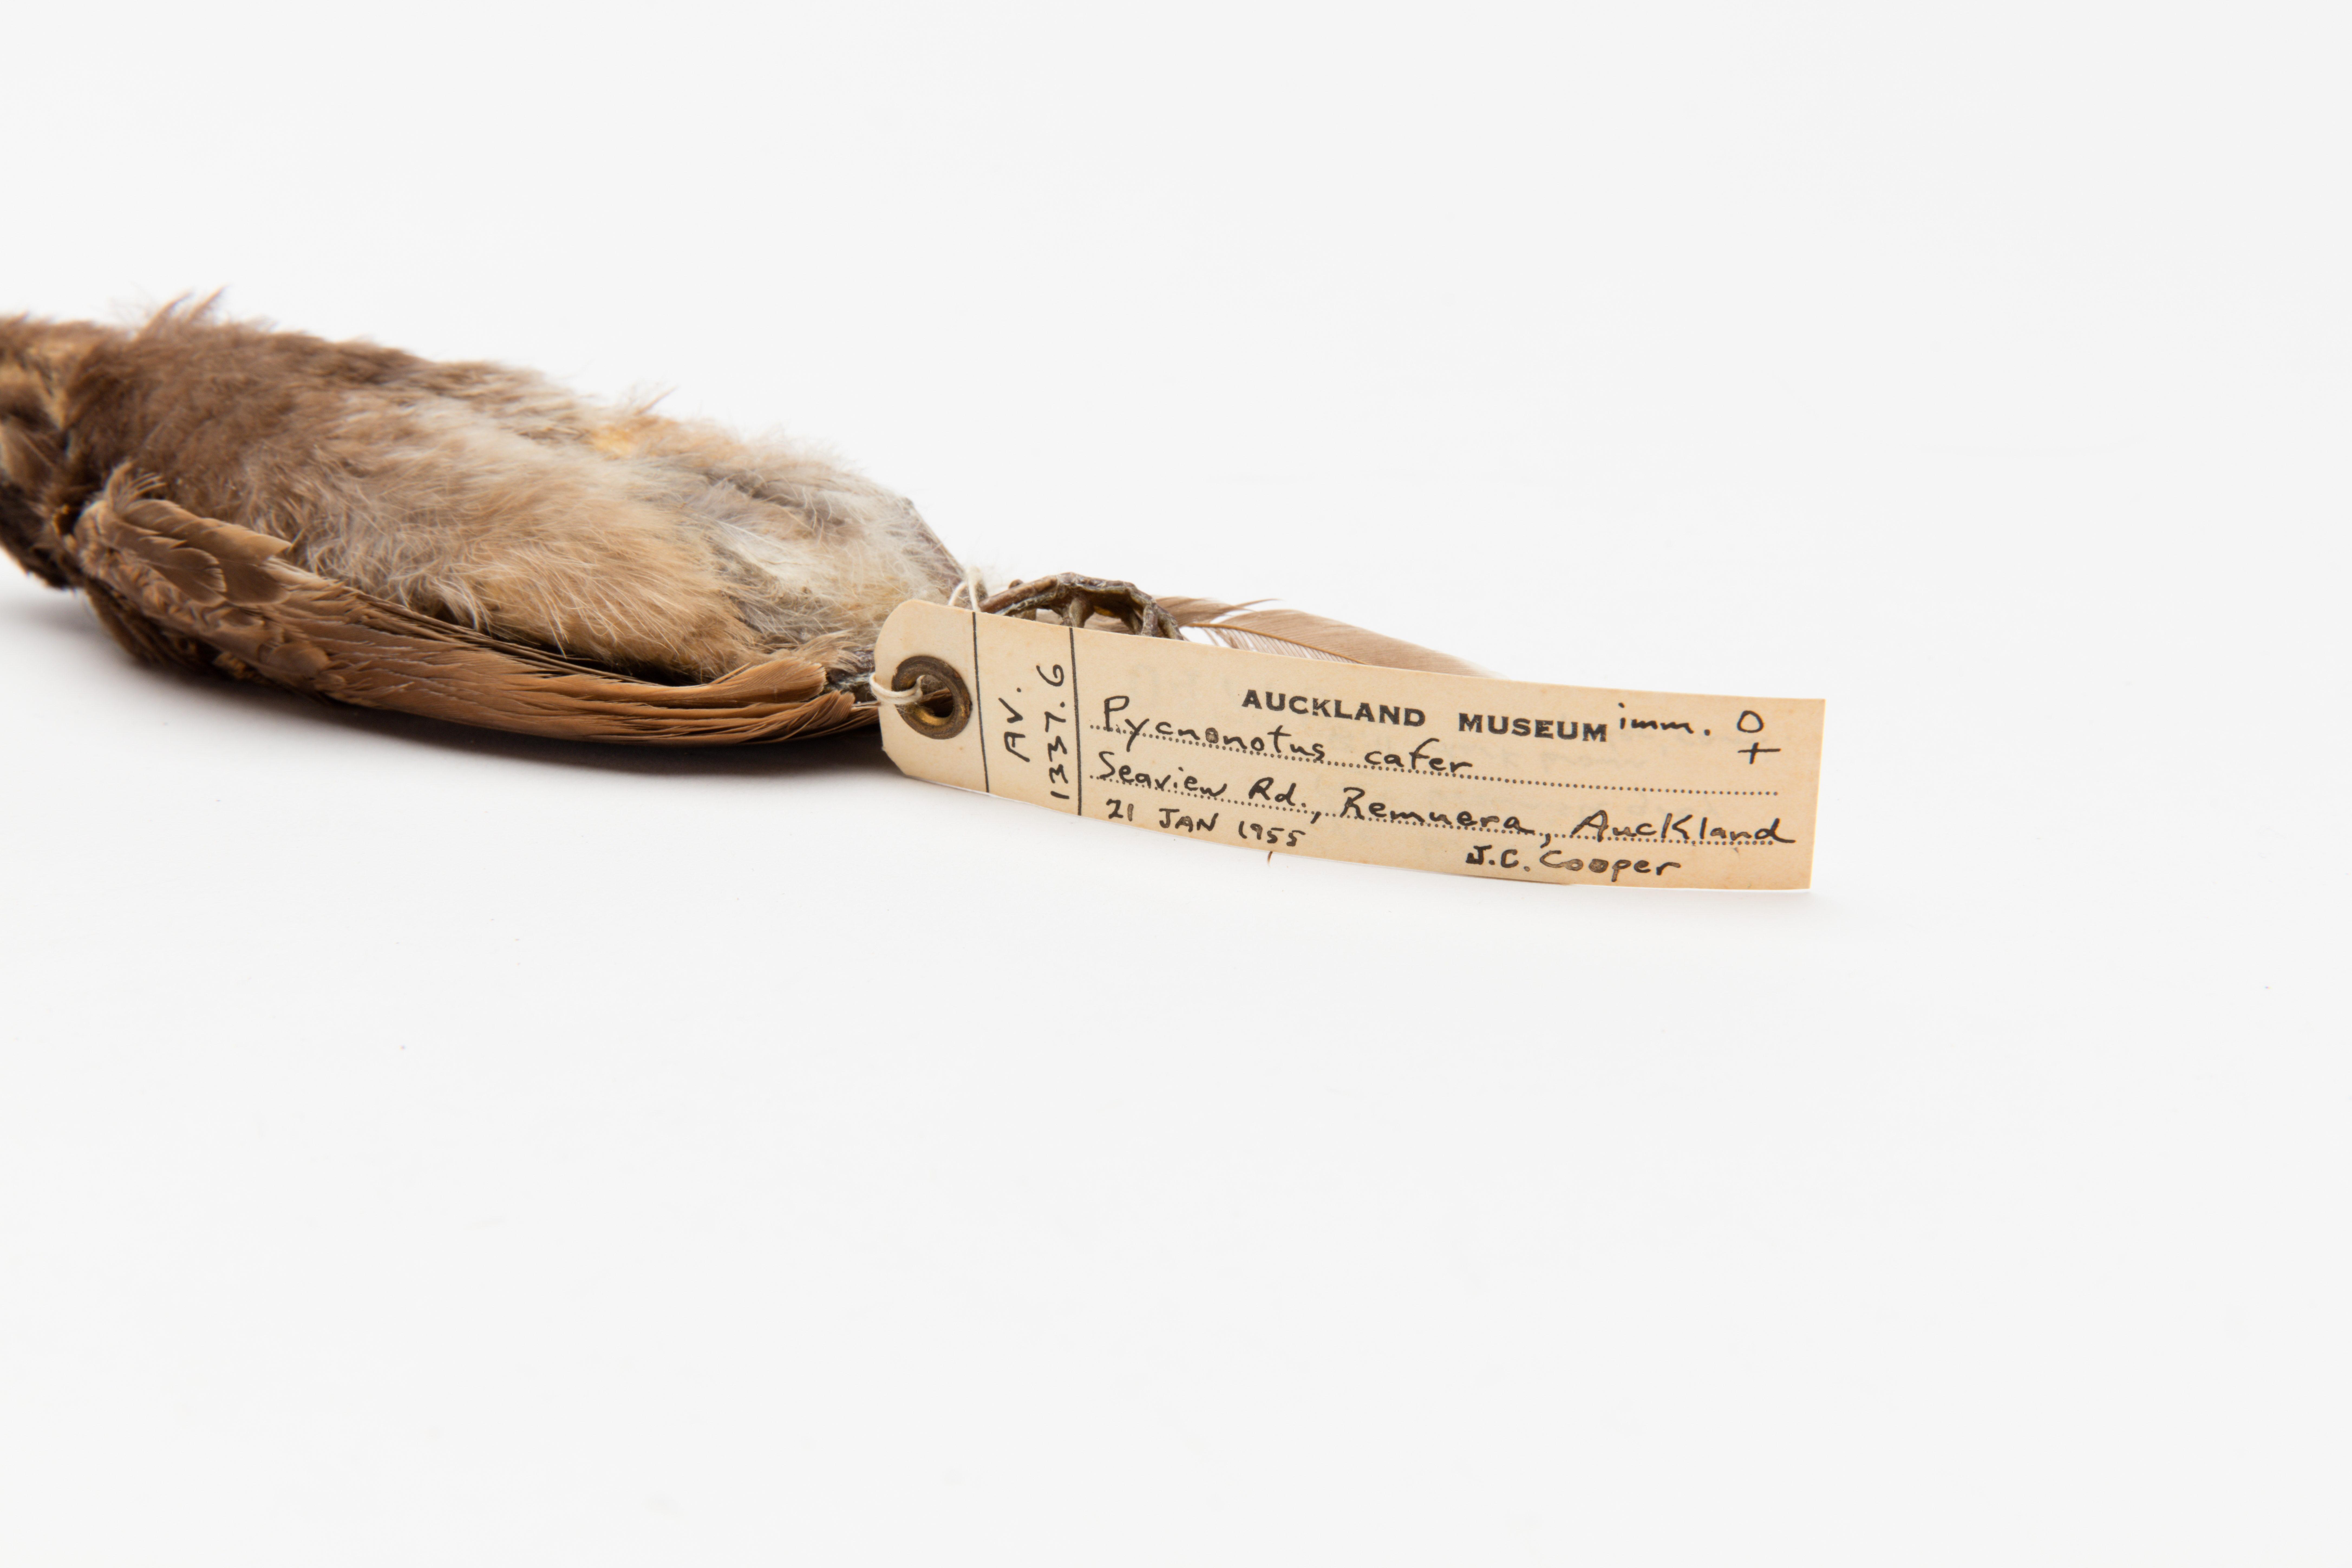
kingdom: Animalia
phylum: Chordata
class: Aves
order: Passeriformes
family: Pycnonotidae
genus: Pycnonotus
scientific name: Pycnonotus cafer
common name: Red-vented bulbul
